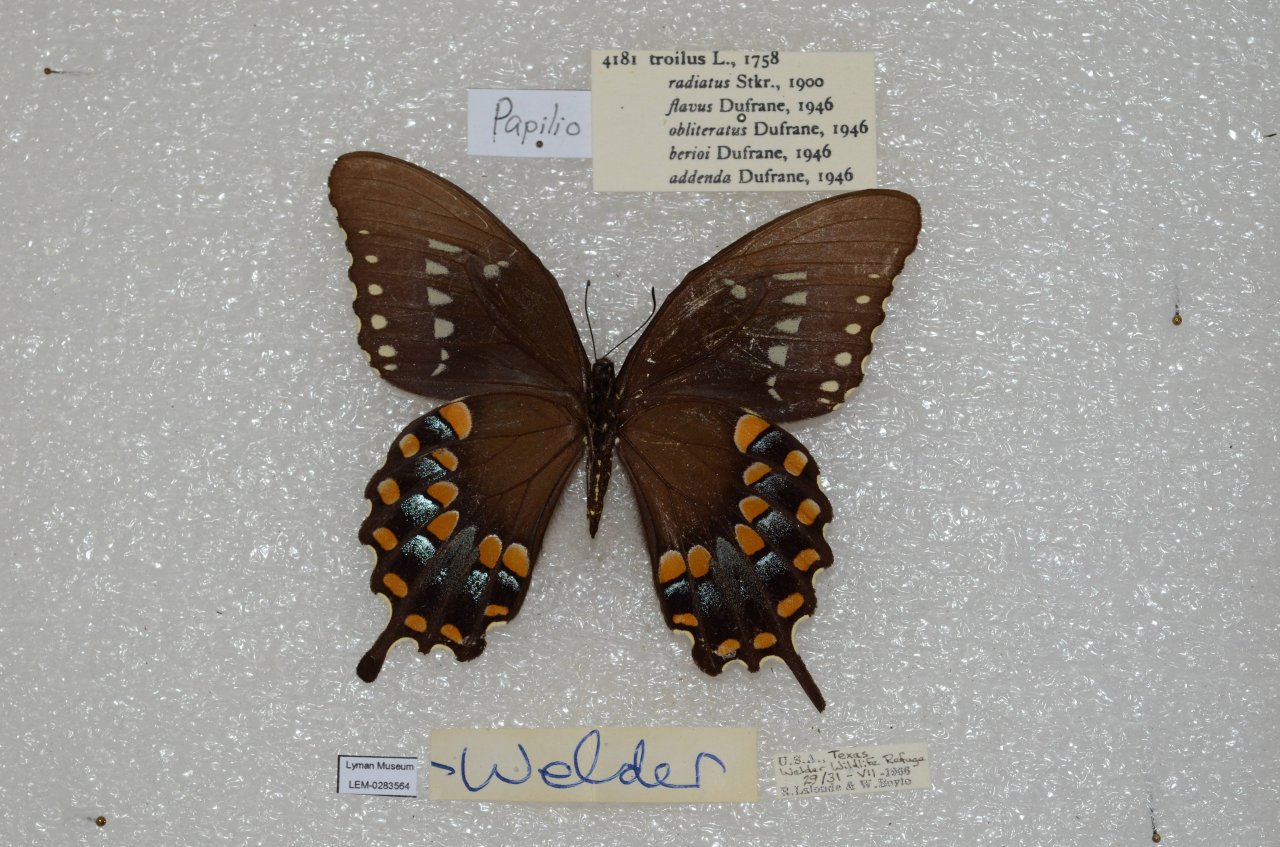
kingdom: Animalia
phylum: Arthropoda
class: Insecta
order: Lepidoptera
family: Papilionidae
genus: Pterourus
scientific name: Pterourus troilus
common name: Spicebush Swallowtail
